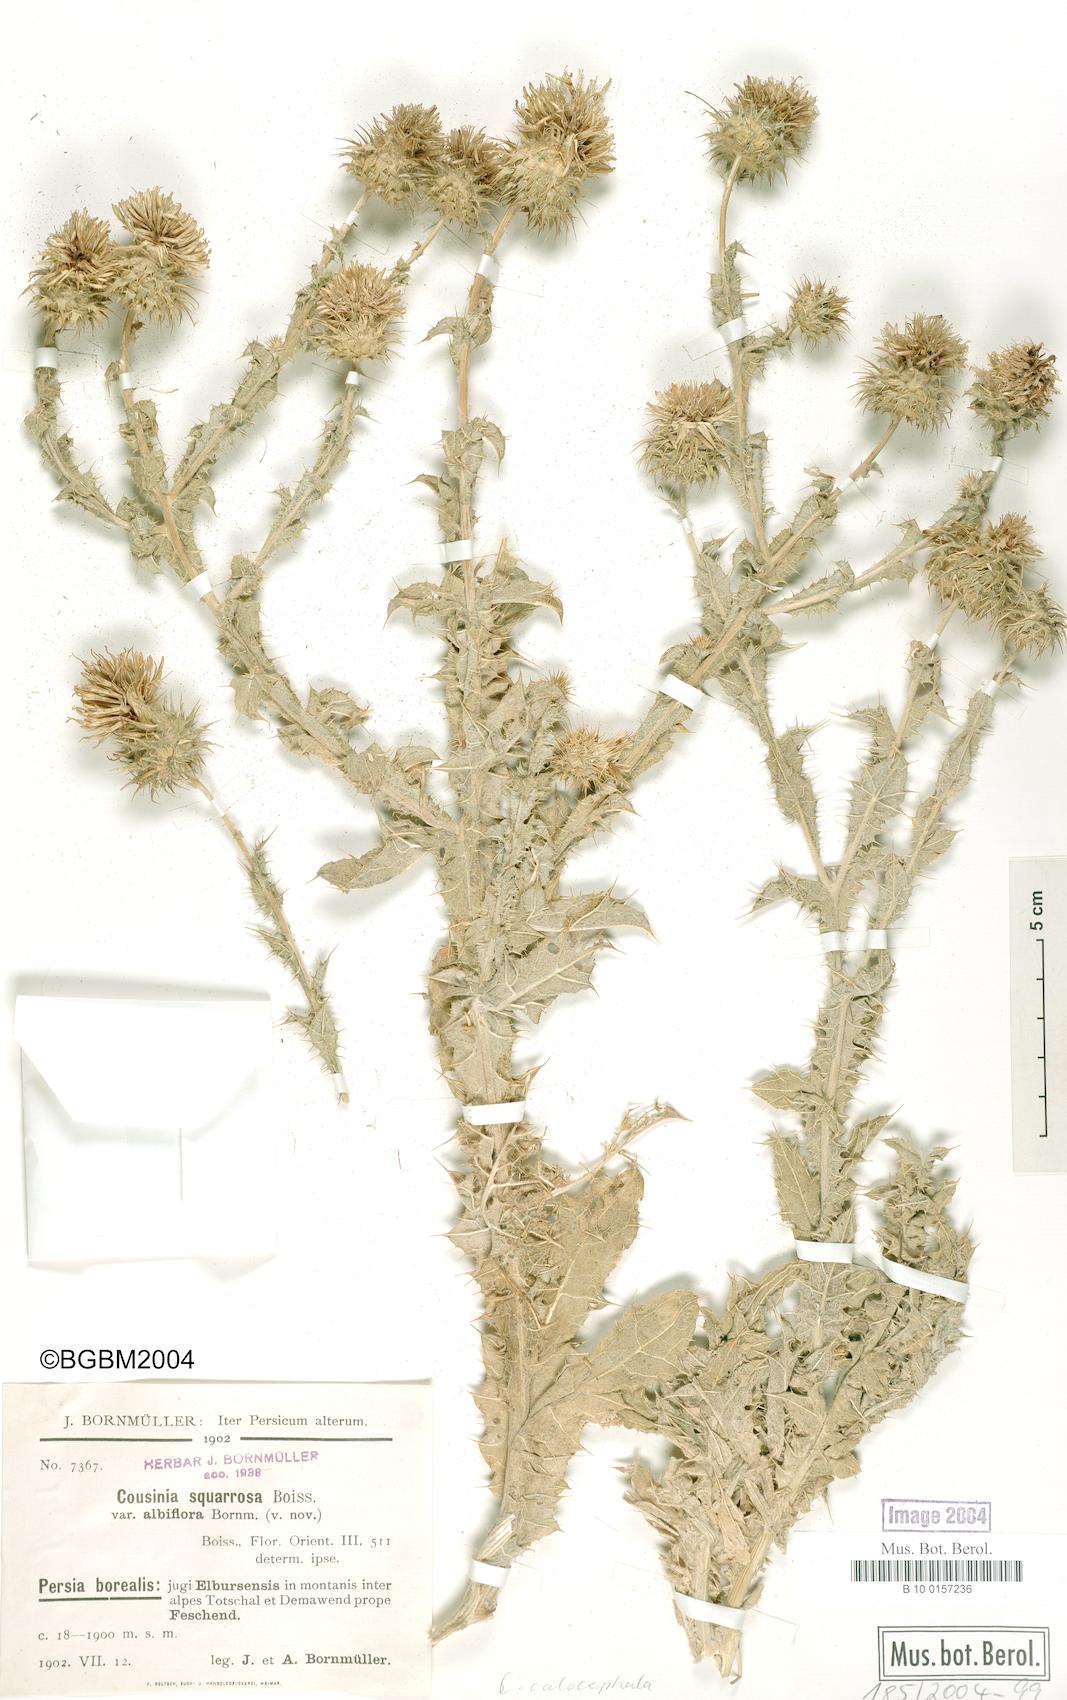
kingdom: Plantae
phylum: Tracheophyta
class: Magnoliopsida
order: Asterales
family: Asteraceae
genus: Cousinia
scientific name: Cousinia calocephala
